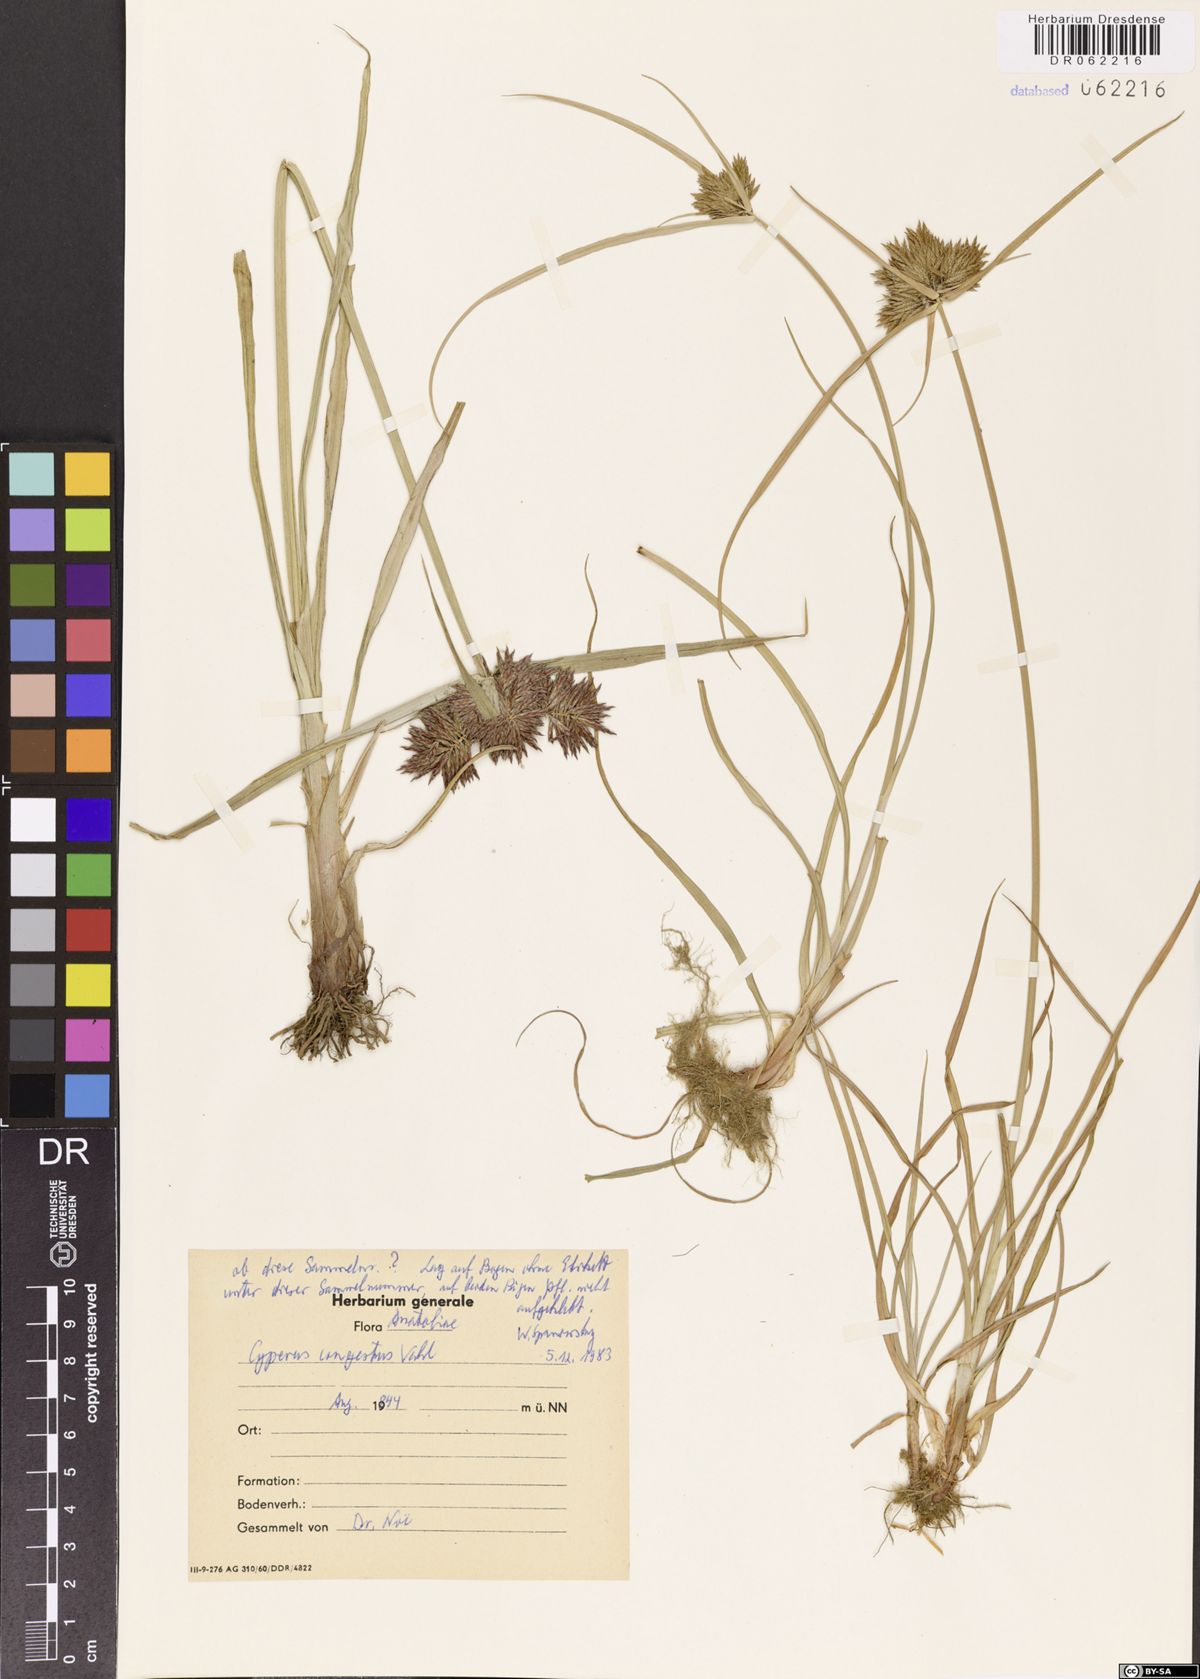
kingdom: Plantae
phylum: Tracheophyta
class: Liliopsida
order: Poales
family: Cyperaceae
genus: Cyperus
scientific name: Cyperus congestus
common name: Dense flat sedge
